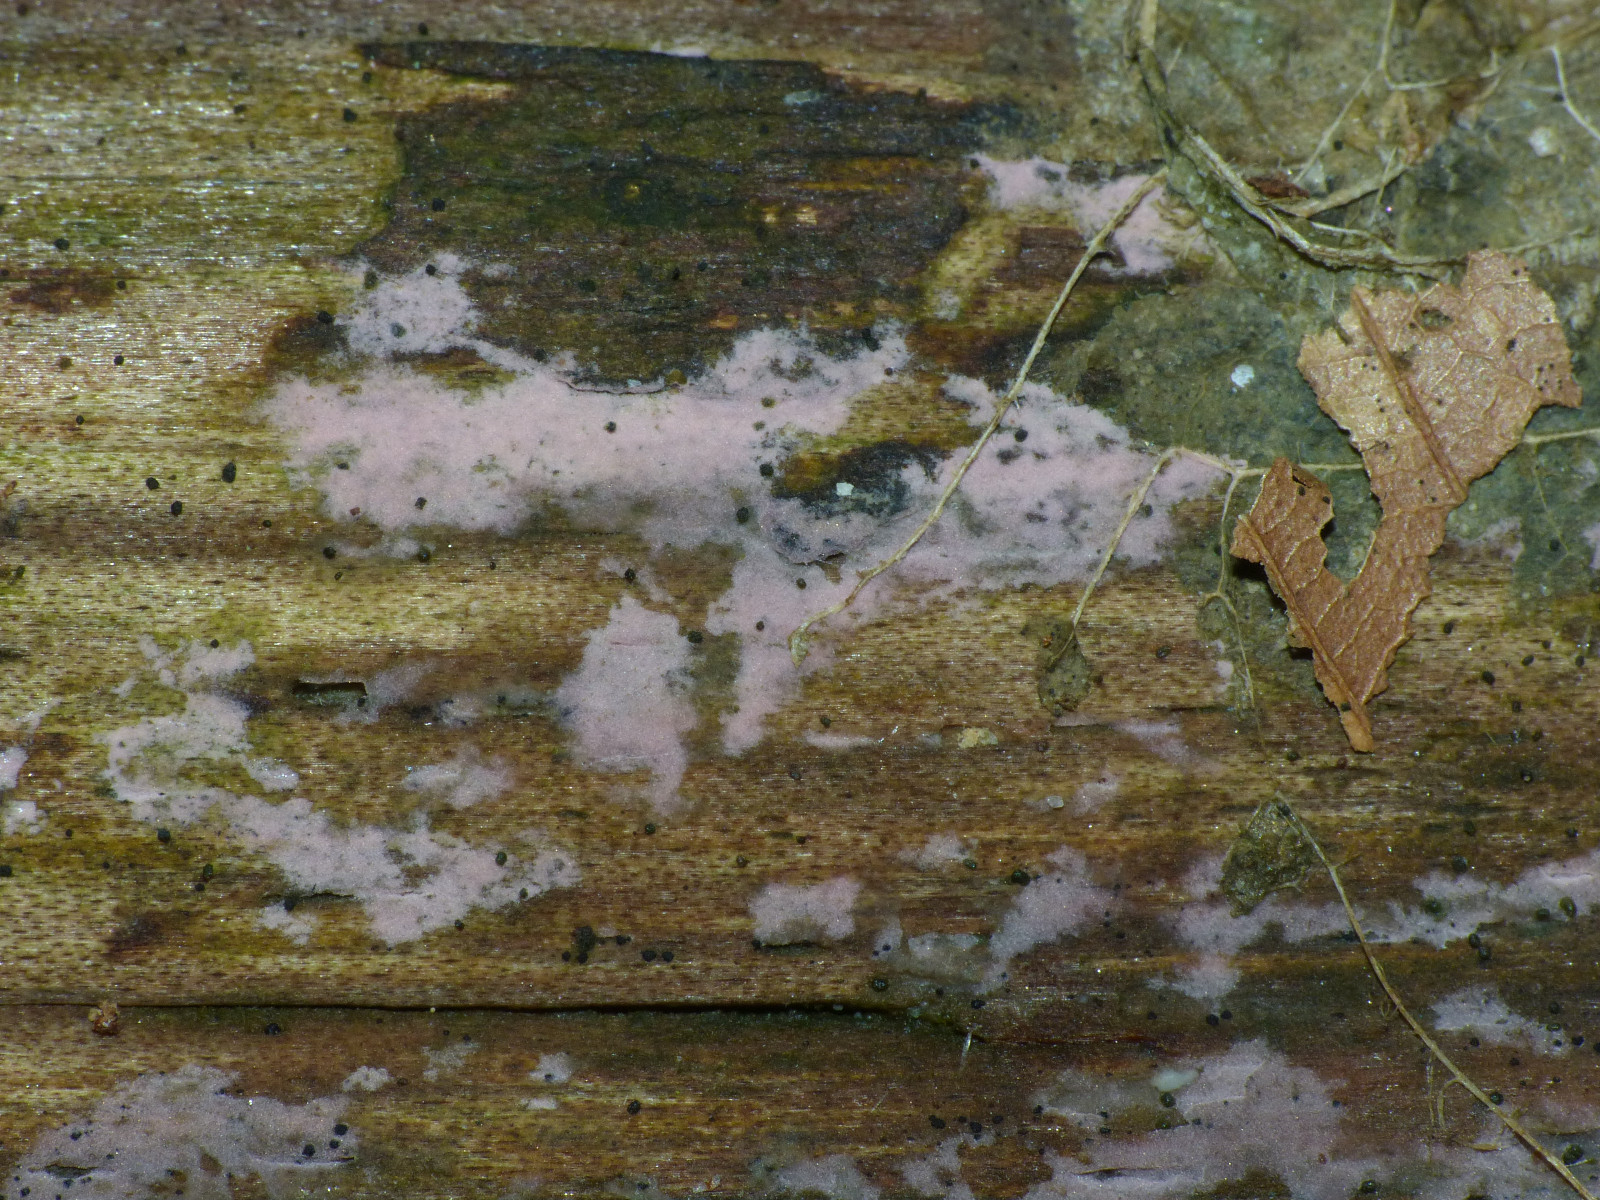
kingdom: Fungi
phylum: Basidiomycota
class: Agaricomycetes
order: Cantharellales
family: Tulasnellaceae
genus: Tulasnella
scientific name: Tulasnella violea
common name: violet ballonhinde
